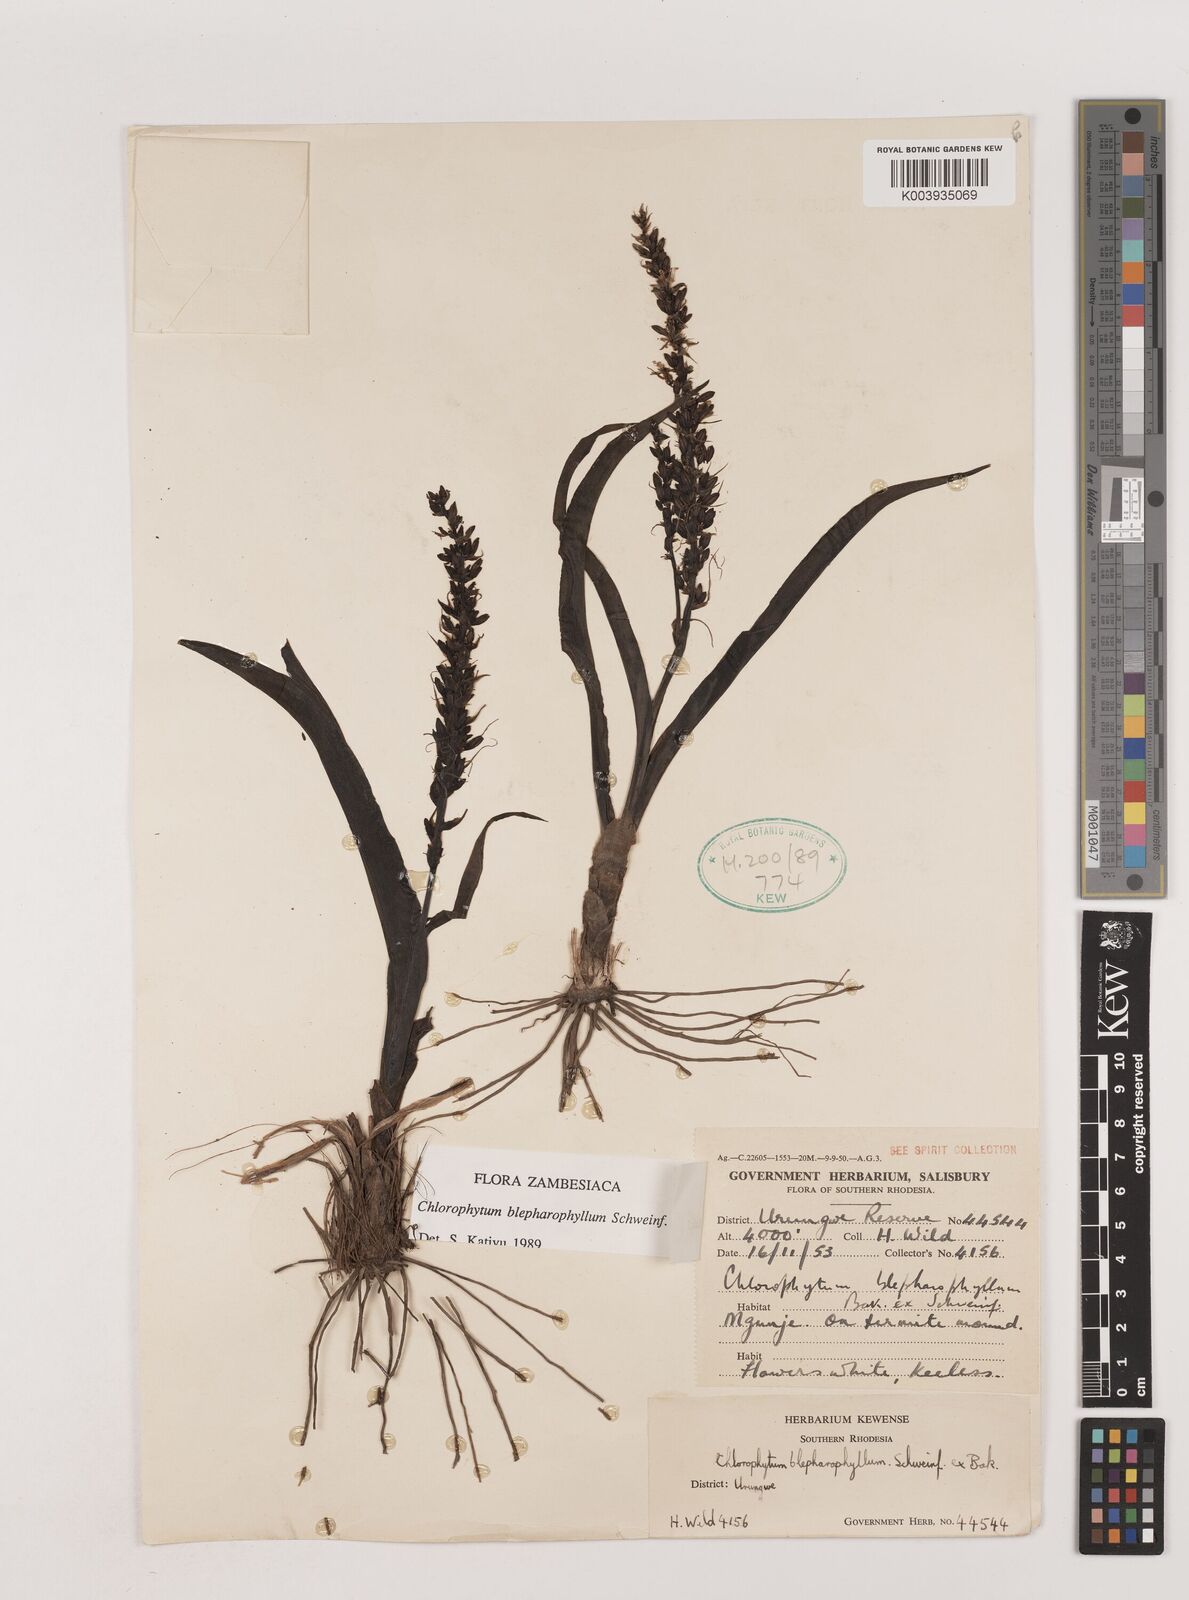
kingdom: Plantae
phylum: Tracheophyta
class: Liliopsida
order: Asparagales
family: Asparagaceae
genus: Chlorophytum
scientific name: Chlorophytum blepharophyllum
